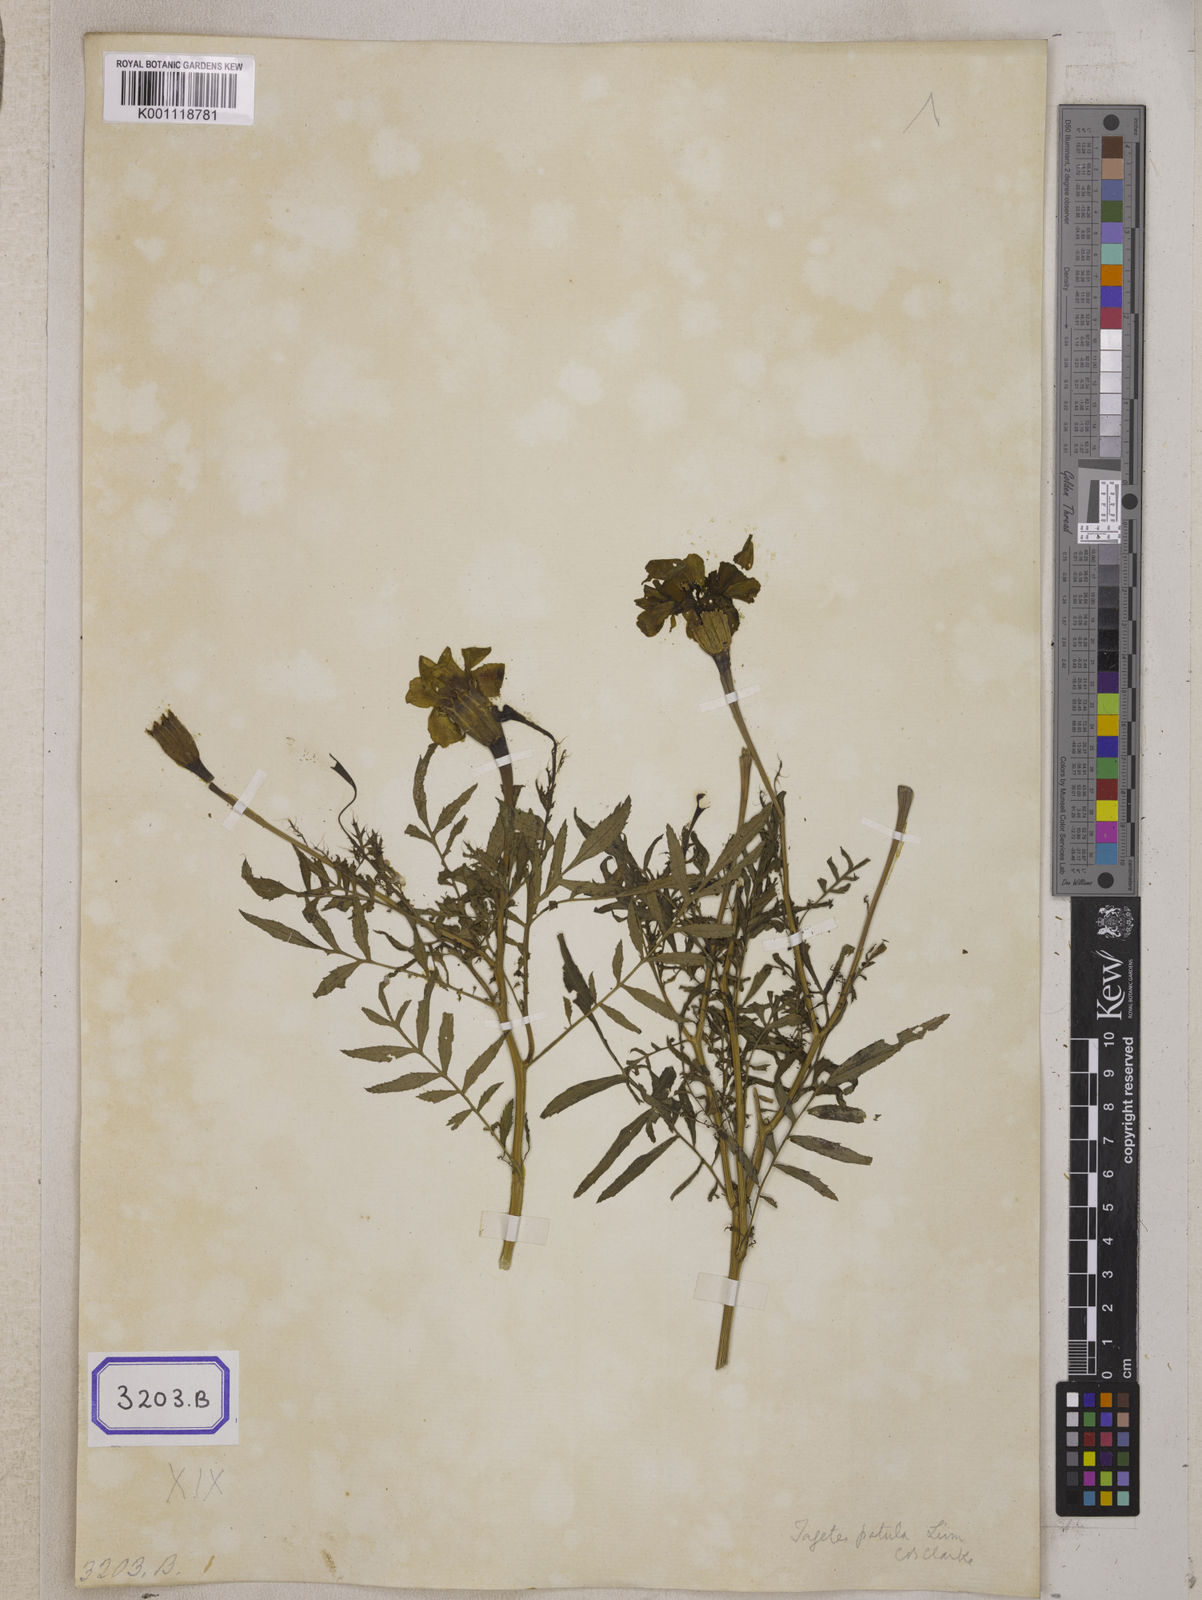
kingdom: Plantae
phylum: Tracheophyta
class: Magnoliopsida
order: Asterales
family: Asteraceae
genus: Tagetes
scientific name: Tagetes erecta
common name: African marigold
